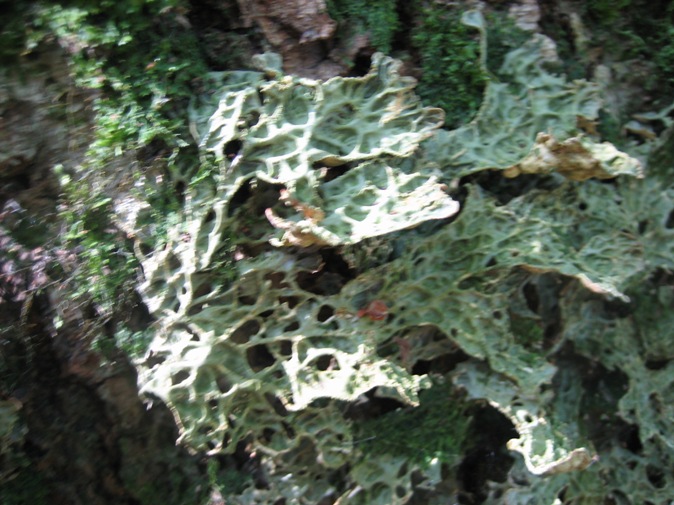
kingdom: Fungi
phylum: Ascomycota
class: Lecanoromycetes
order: Peltigerales
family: Lobariaceae
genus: Lobaria
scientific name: Lobaria pulmonaria
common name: almindelig lungelav
